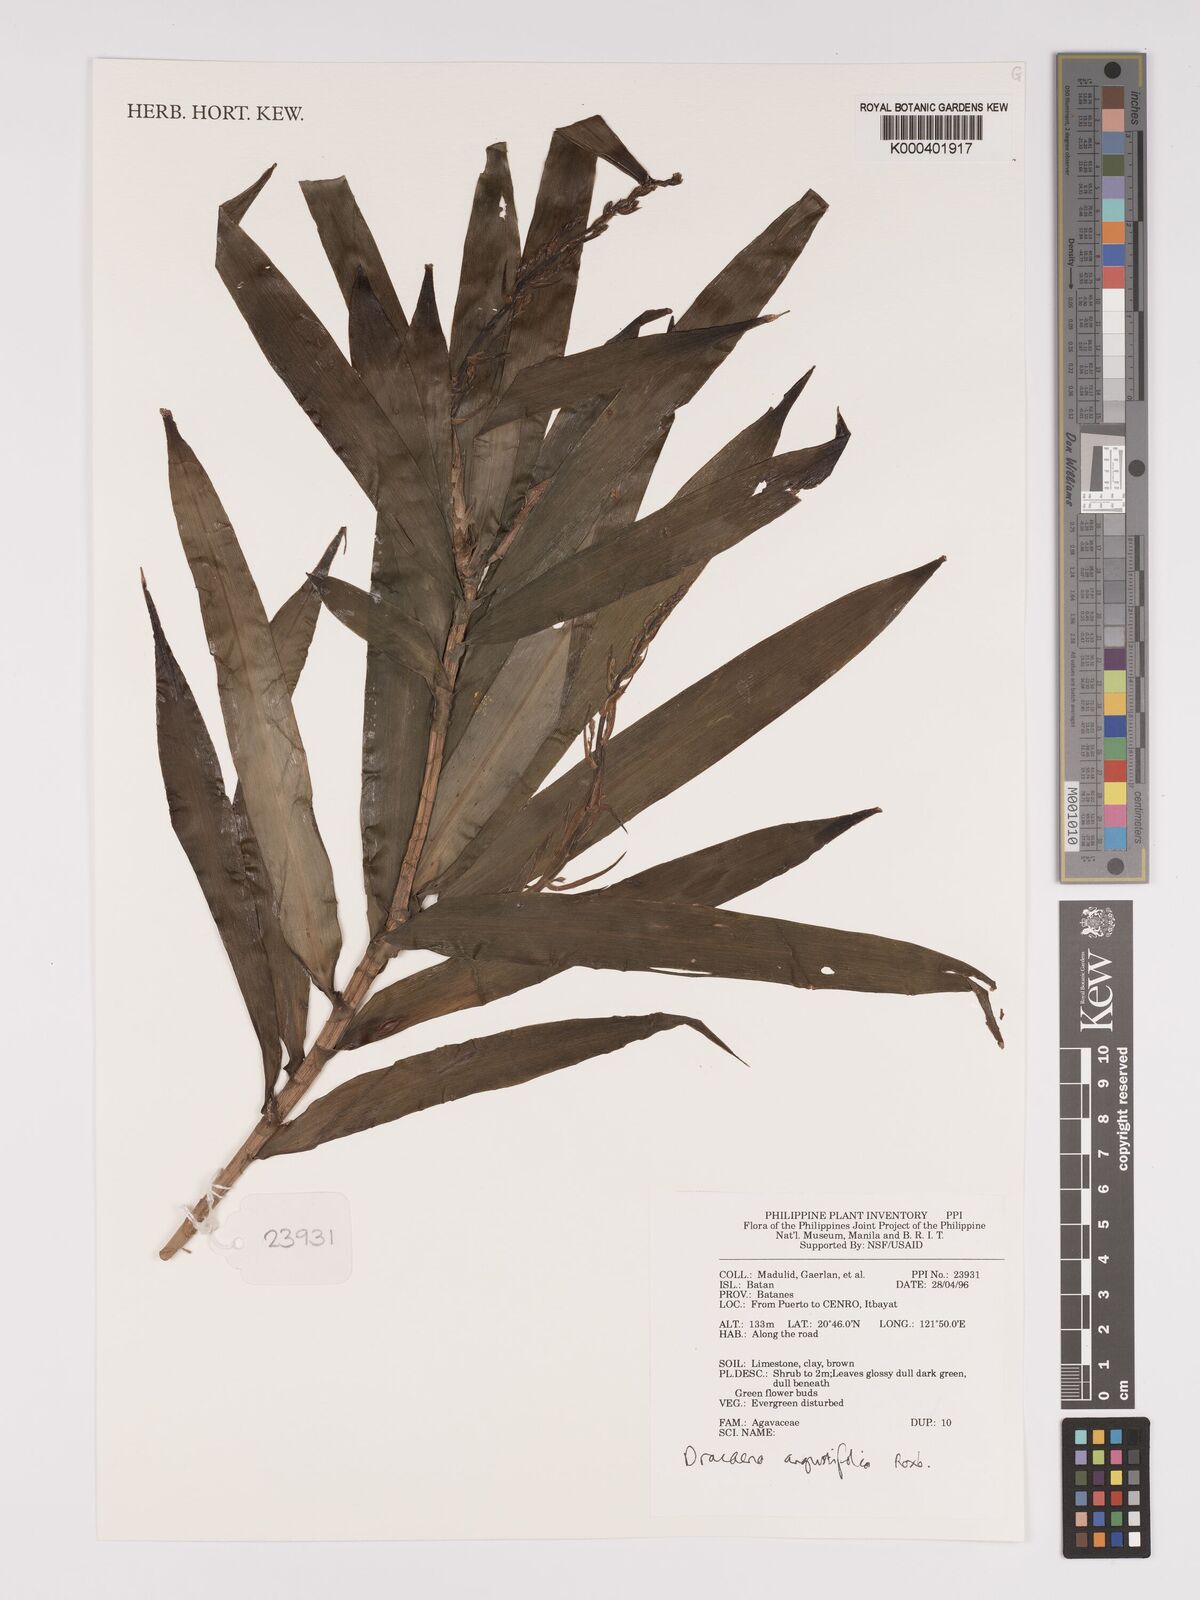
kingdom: Plantae
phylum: Tracheophyta
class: Liliopsida
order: Asparagales
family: Asparagaceae
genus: Dracaena
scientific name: Dracaena angustifolia
